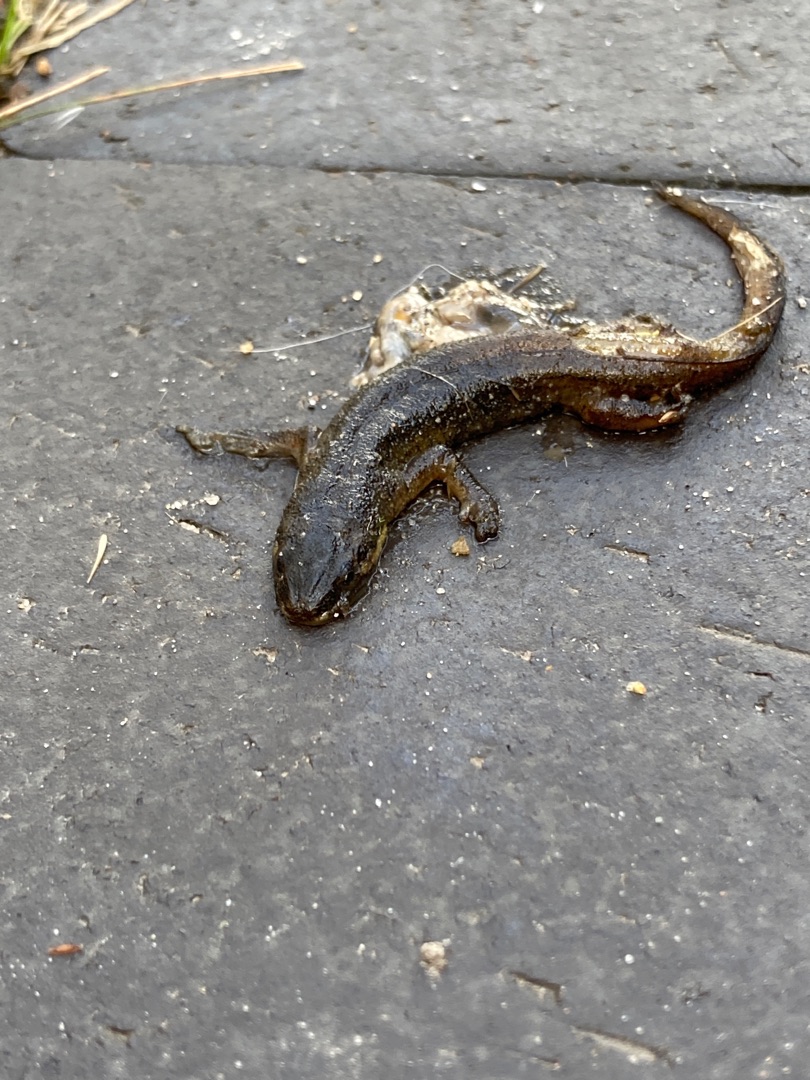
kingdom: Animalia
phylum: Chordata
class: Amphibia
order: Caudata
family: Salamandridae
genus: Lissotriton
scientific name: Lissotriton vulgaris
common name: Lille vandsalamander
